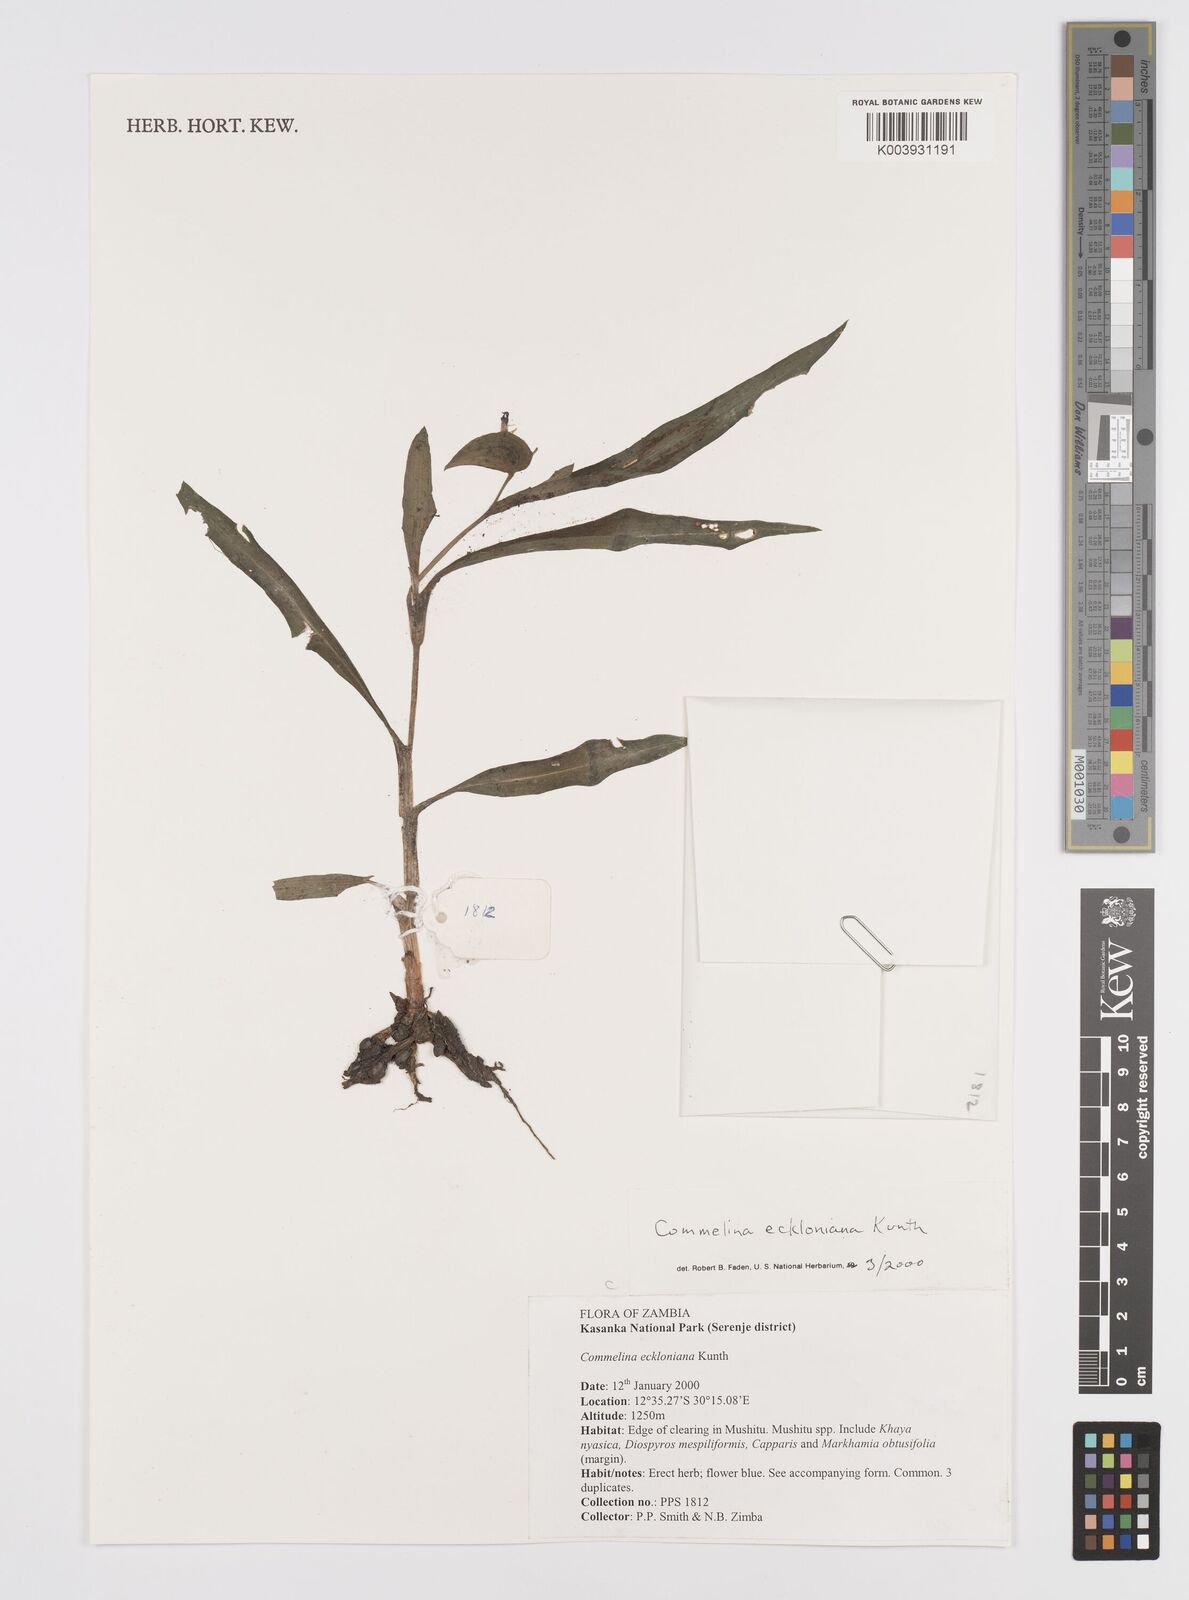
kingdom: Plantae
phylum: Tracheophyta
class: Liliopsida
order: Commelinales
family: Commelinaceae
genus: Commelina
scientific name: Commelina eckloniana
